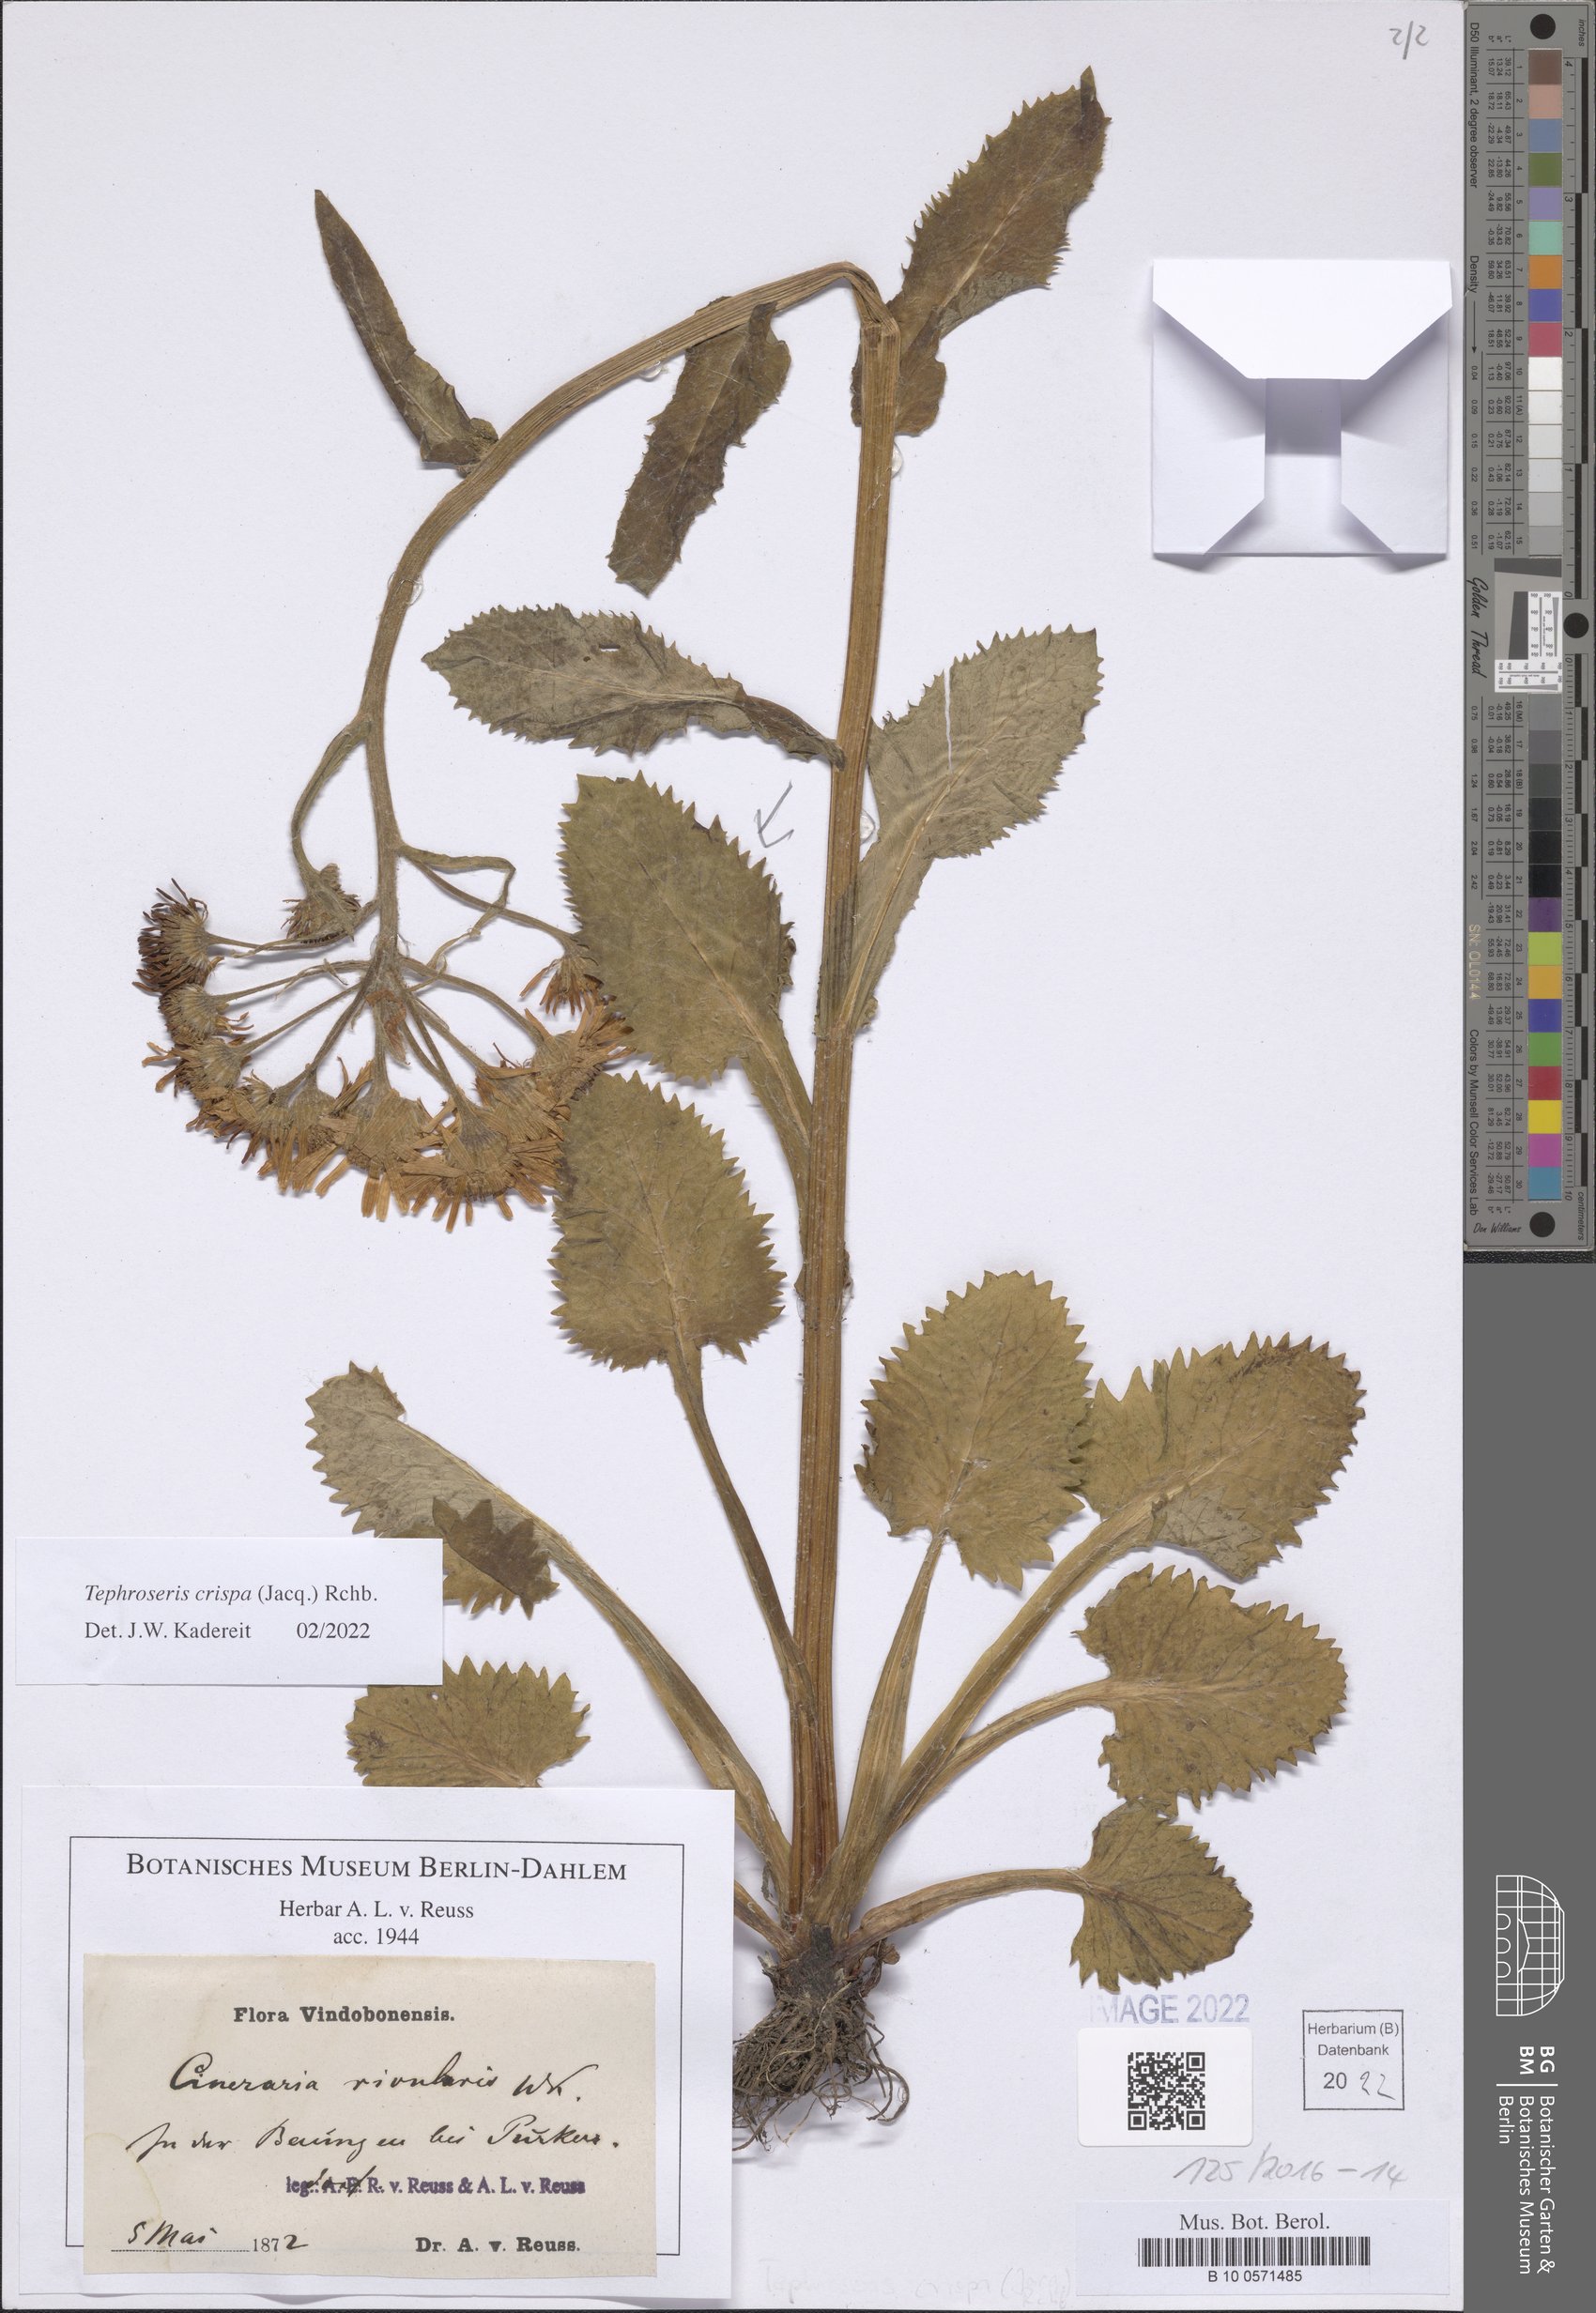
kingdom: Plantae
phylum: Tracheophyta
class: Magnoliopsida
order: Asterales
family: Asteraceae
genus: Tephroseris
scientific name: Tephroseris crispa
